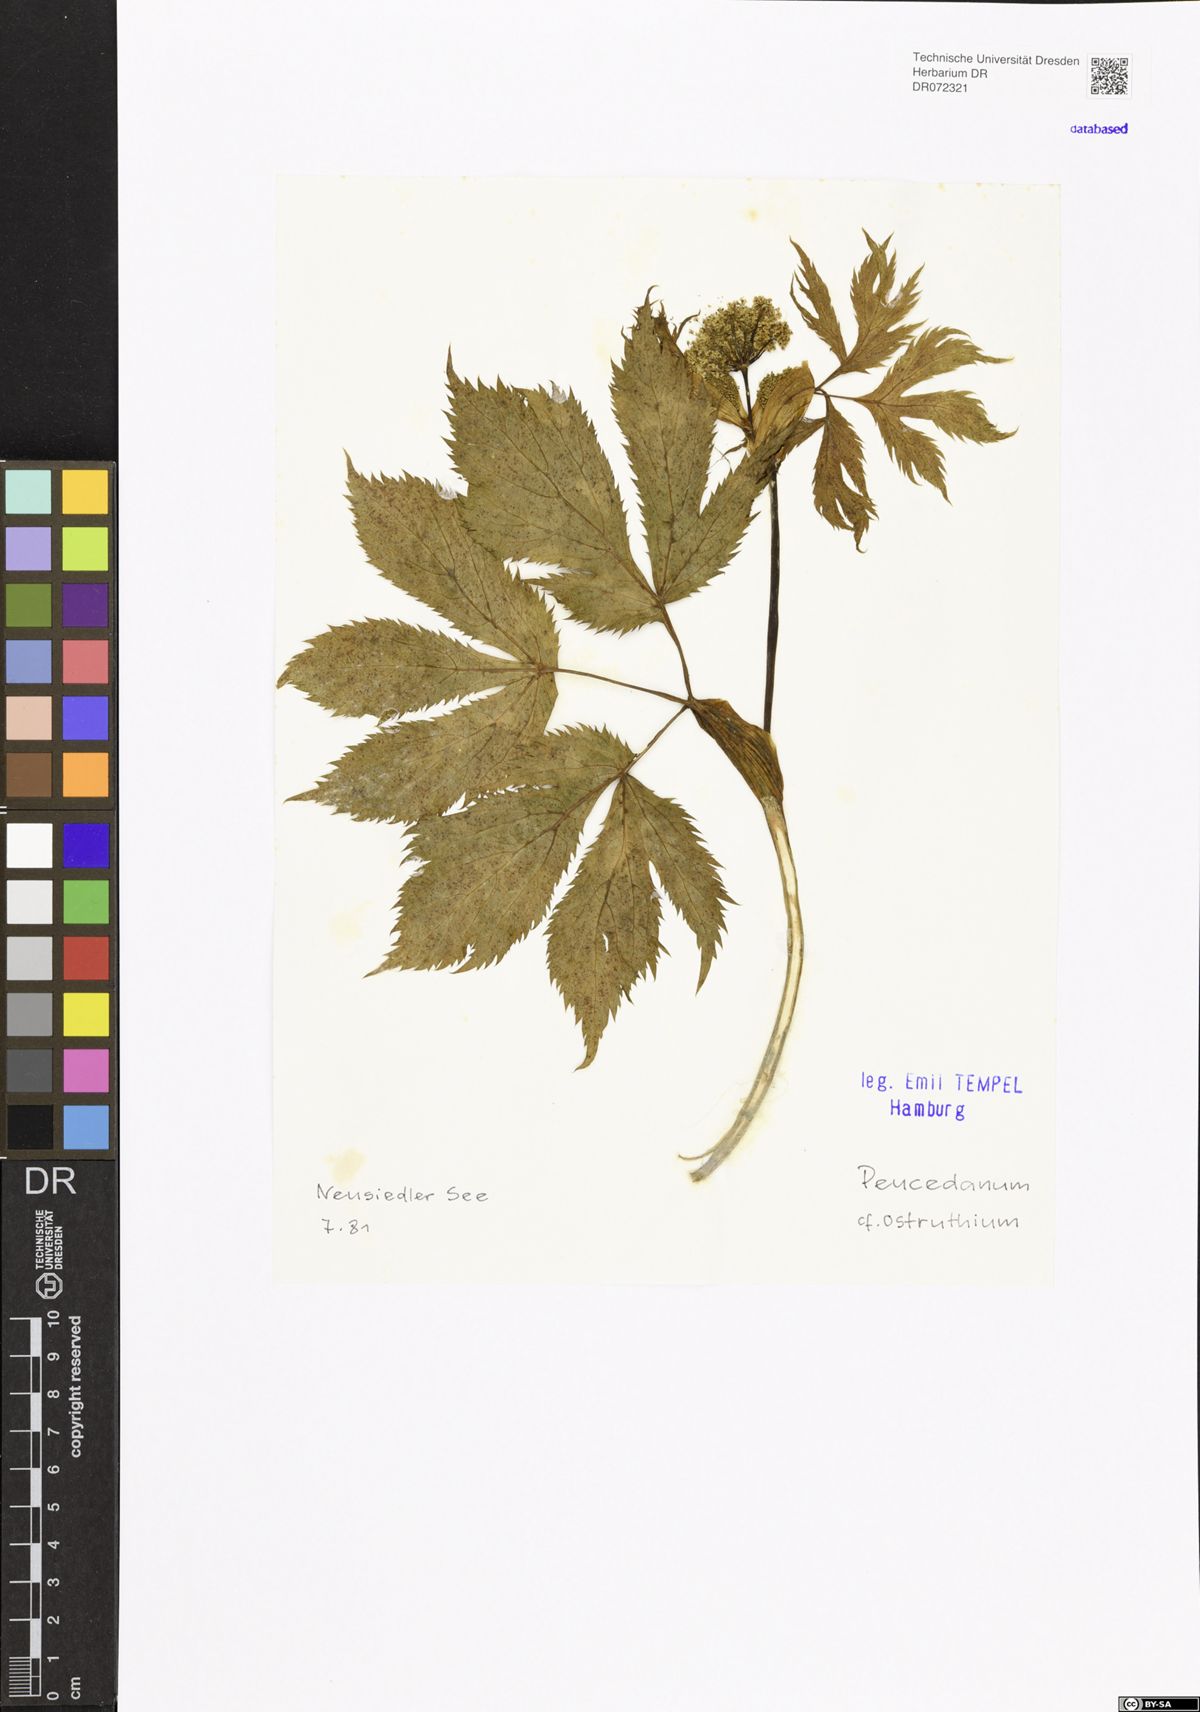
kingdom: Plantae
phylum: Tracheophyta
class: Magnoliopsida
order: Apiales
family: Apiaceae
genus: Imperatoria
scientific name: Imperatoria ostruthium
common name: Masterwort
